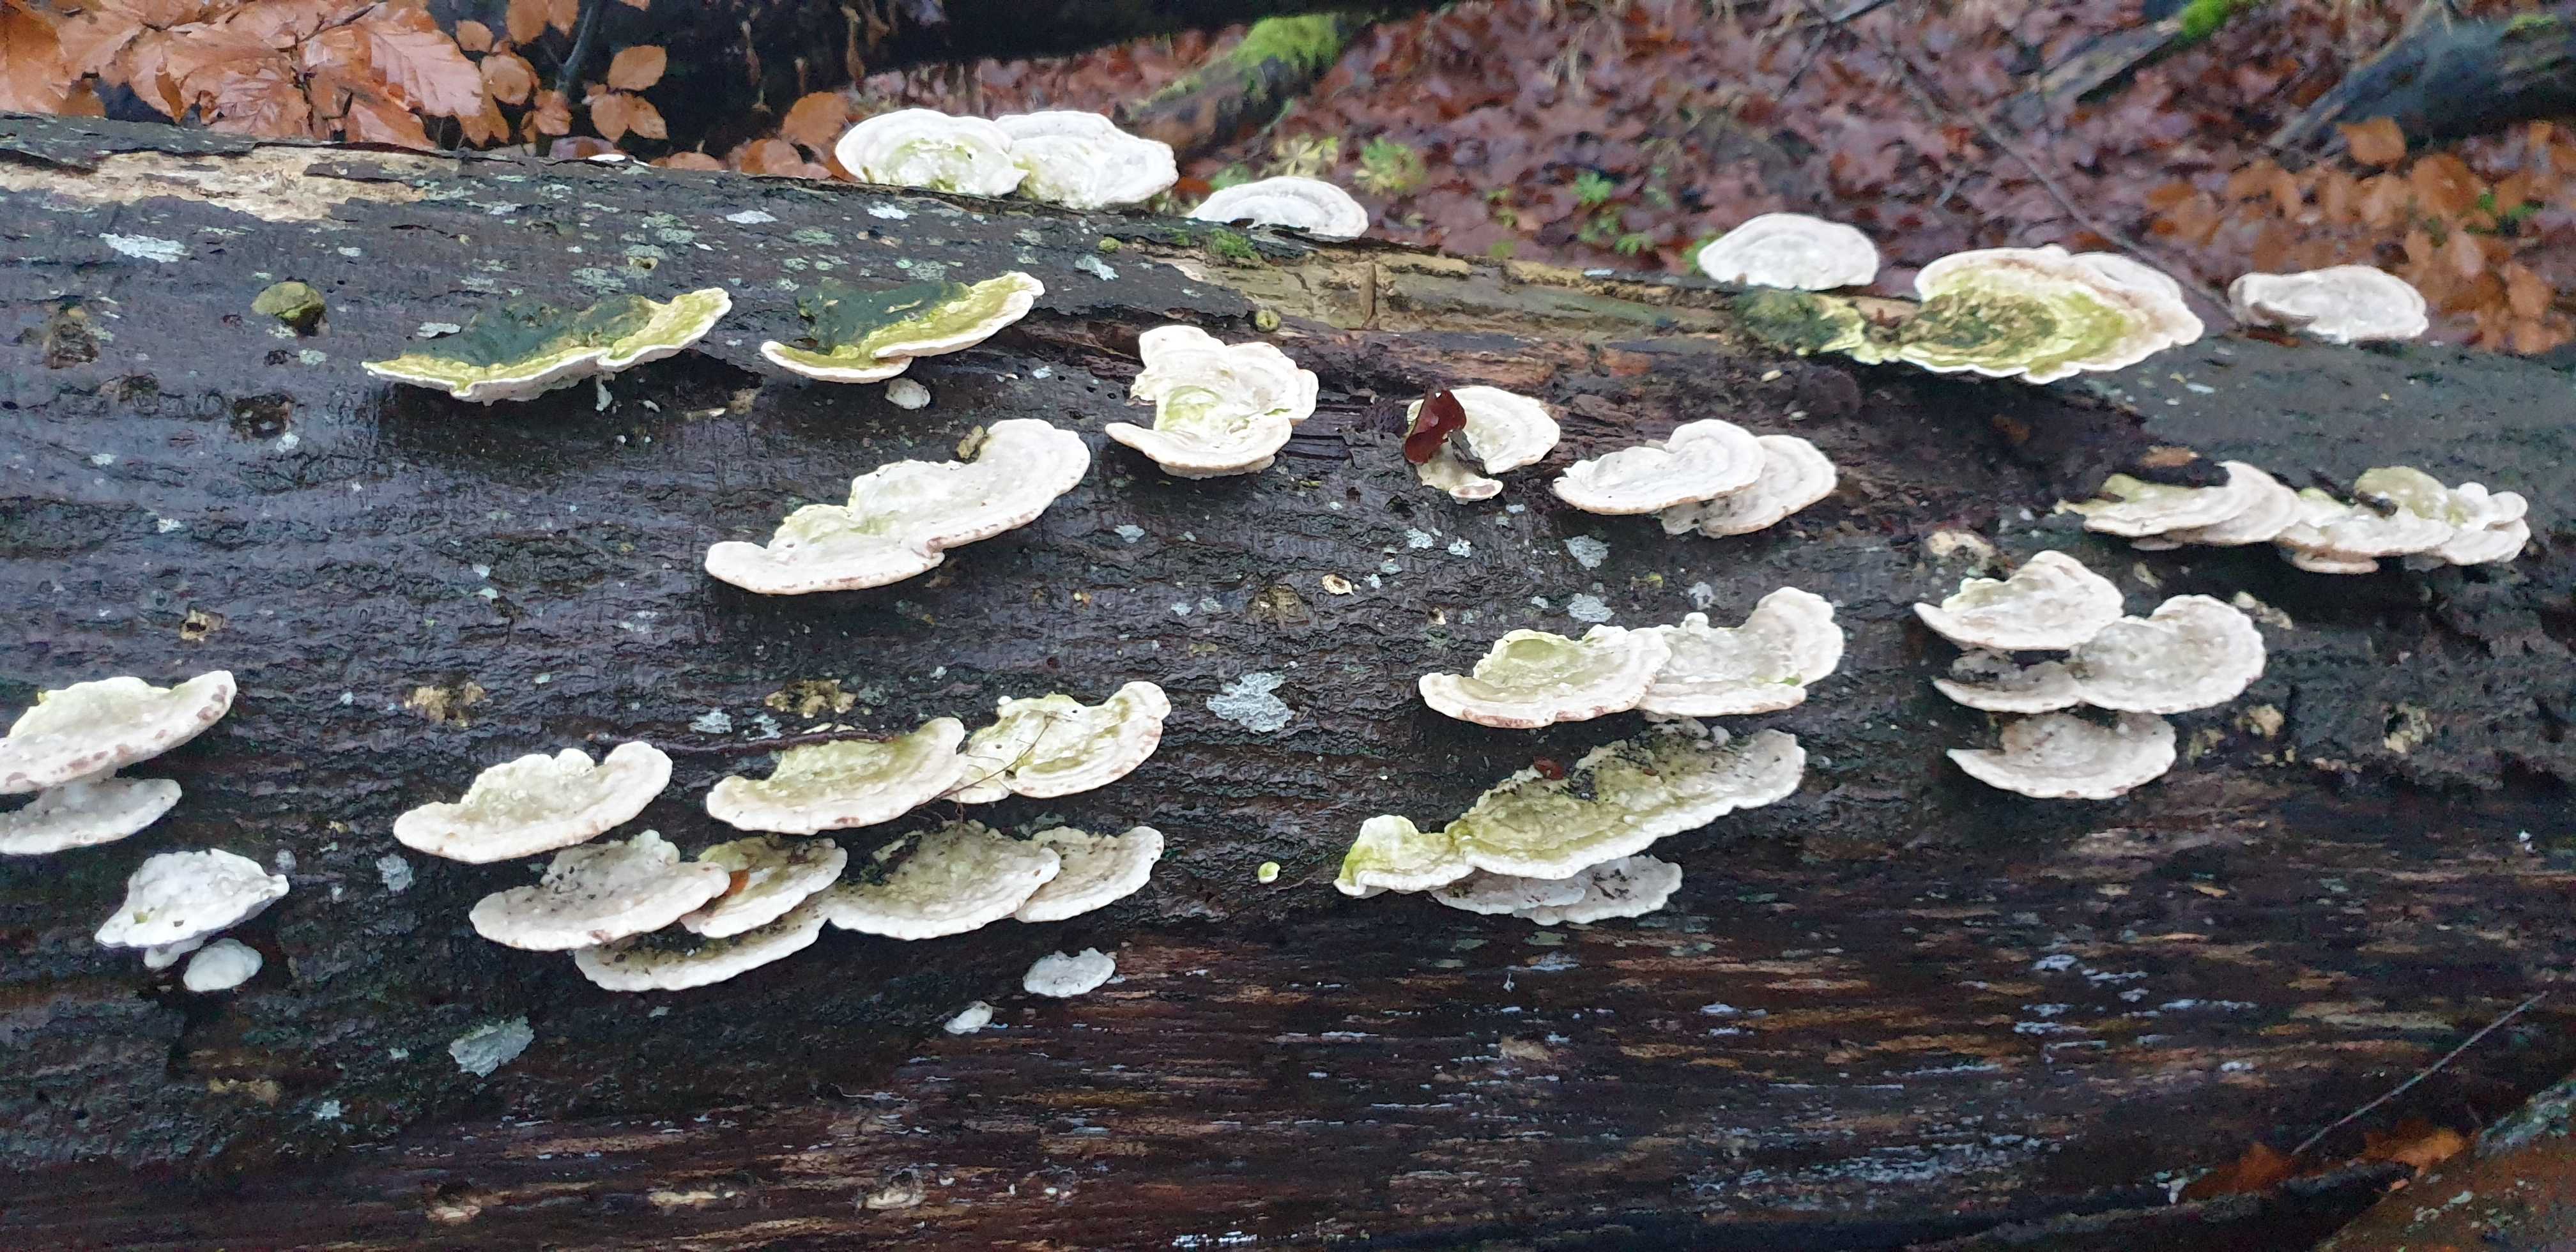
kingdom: Fungi
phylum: Basidiomycota
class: Agaricomycetes
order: Polyporales
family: Polyporaceae
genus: Trametes
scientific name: Trametes hirsuta
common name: håret læderporesvamp
